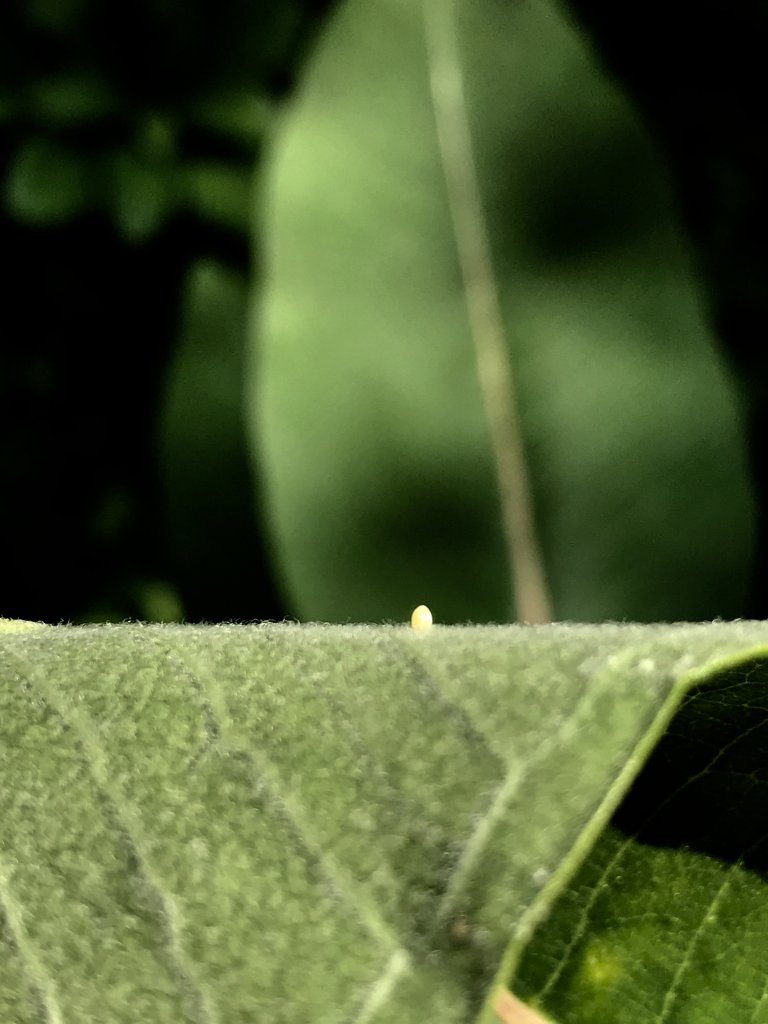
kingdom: Animalia
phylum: Arthropoda
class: Insecta
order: Lepidoptera
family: Nymphalidae
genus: Danaus
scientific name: Danaus plexippus
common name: Monarch
